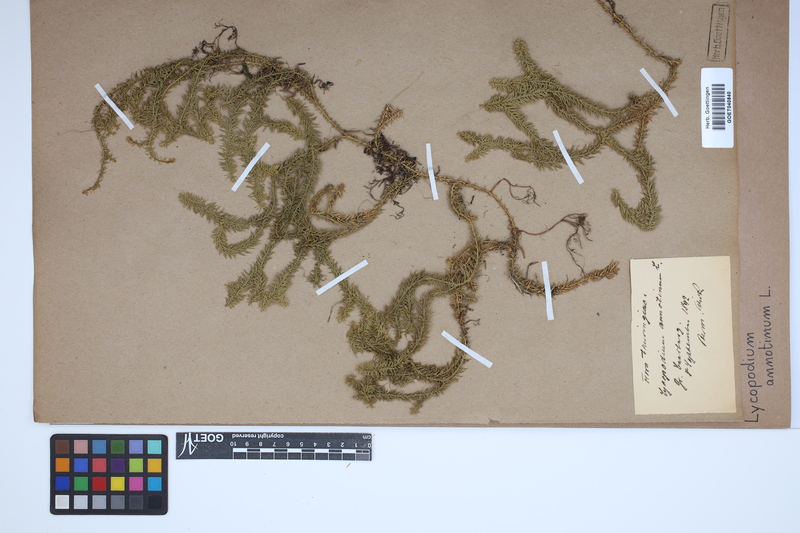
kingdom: Plantae
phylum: Tracheophyta
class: Lycopodiopsida
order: Lycopodiales
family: Lycopodiaceae
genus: Spinulum
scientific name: Spinulum annotinum
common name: Interrupted club-moss
